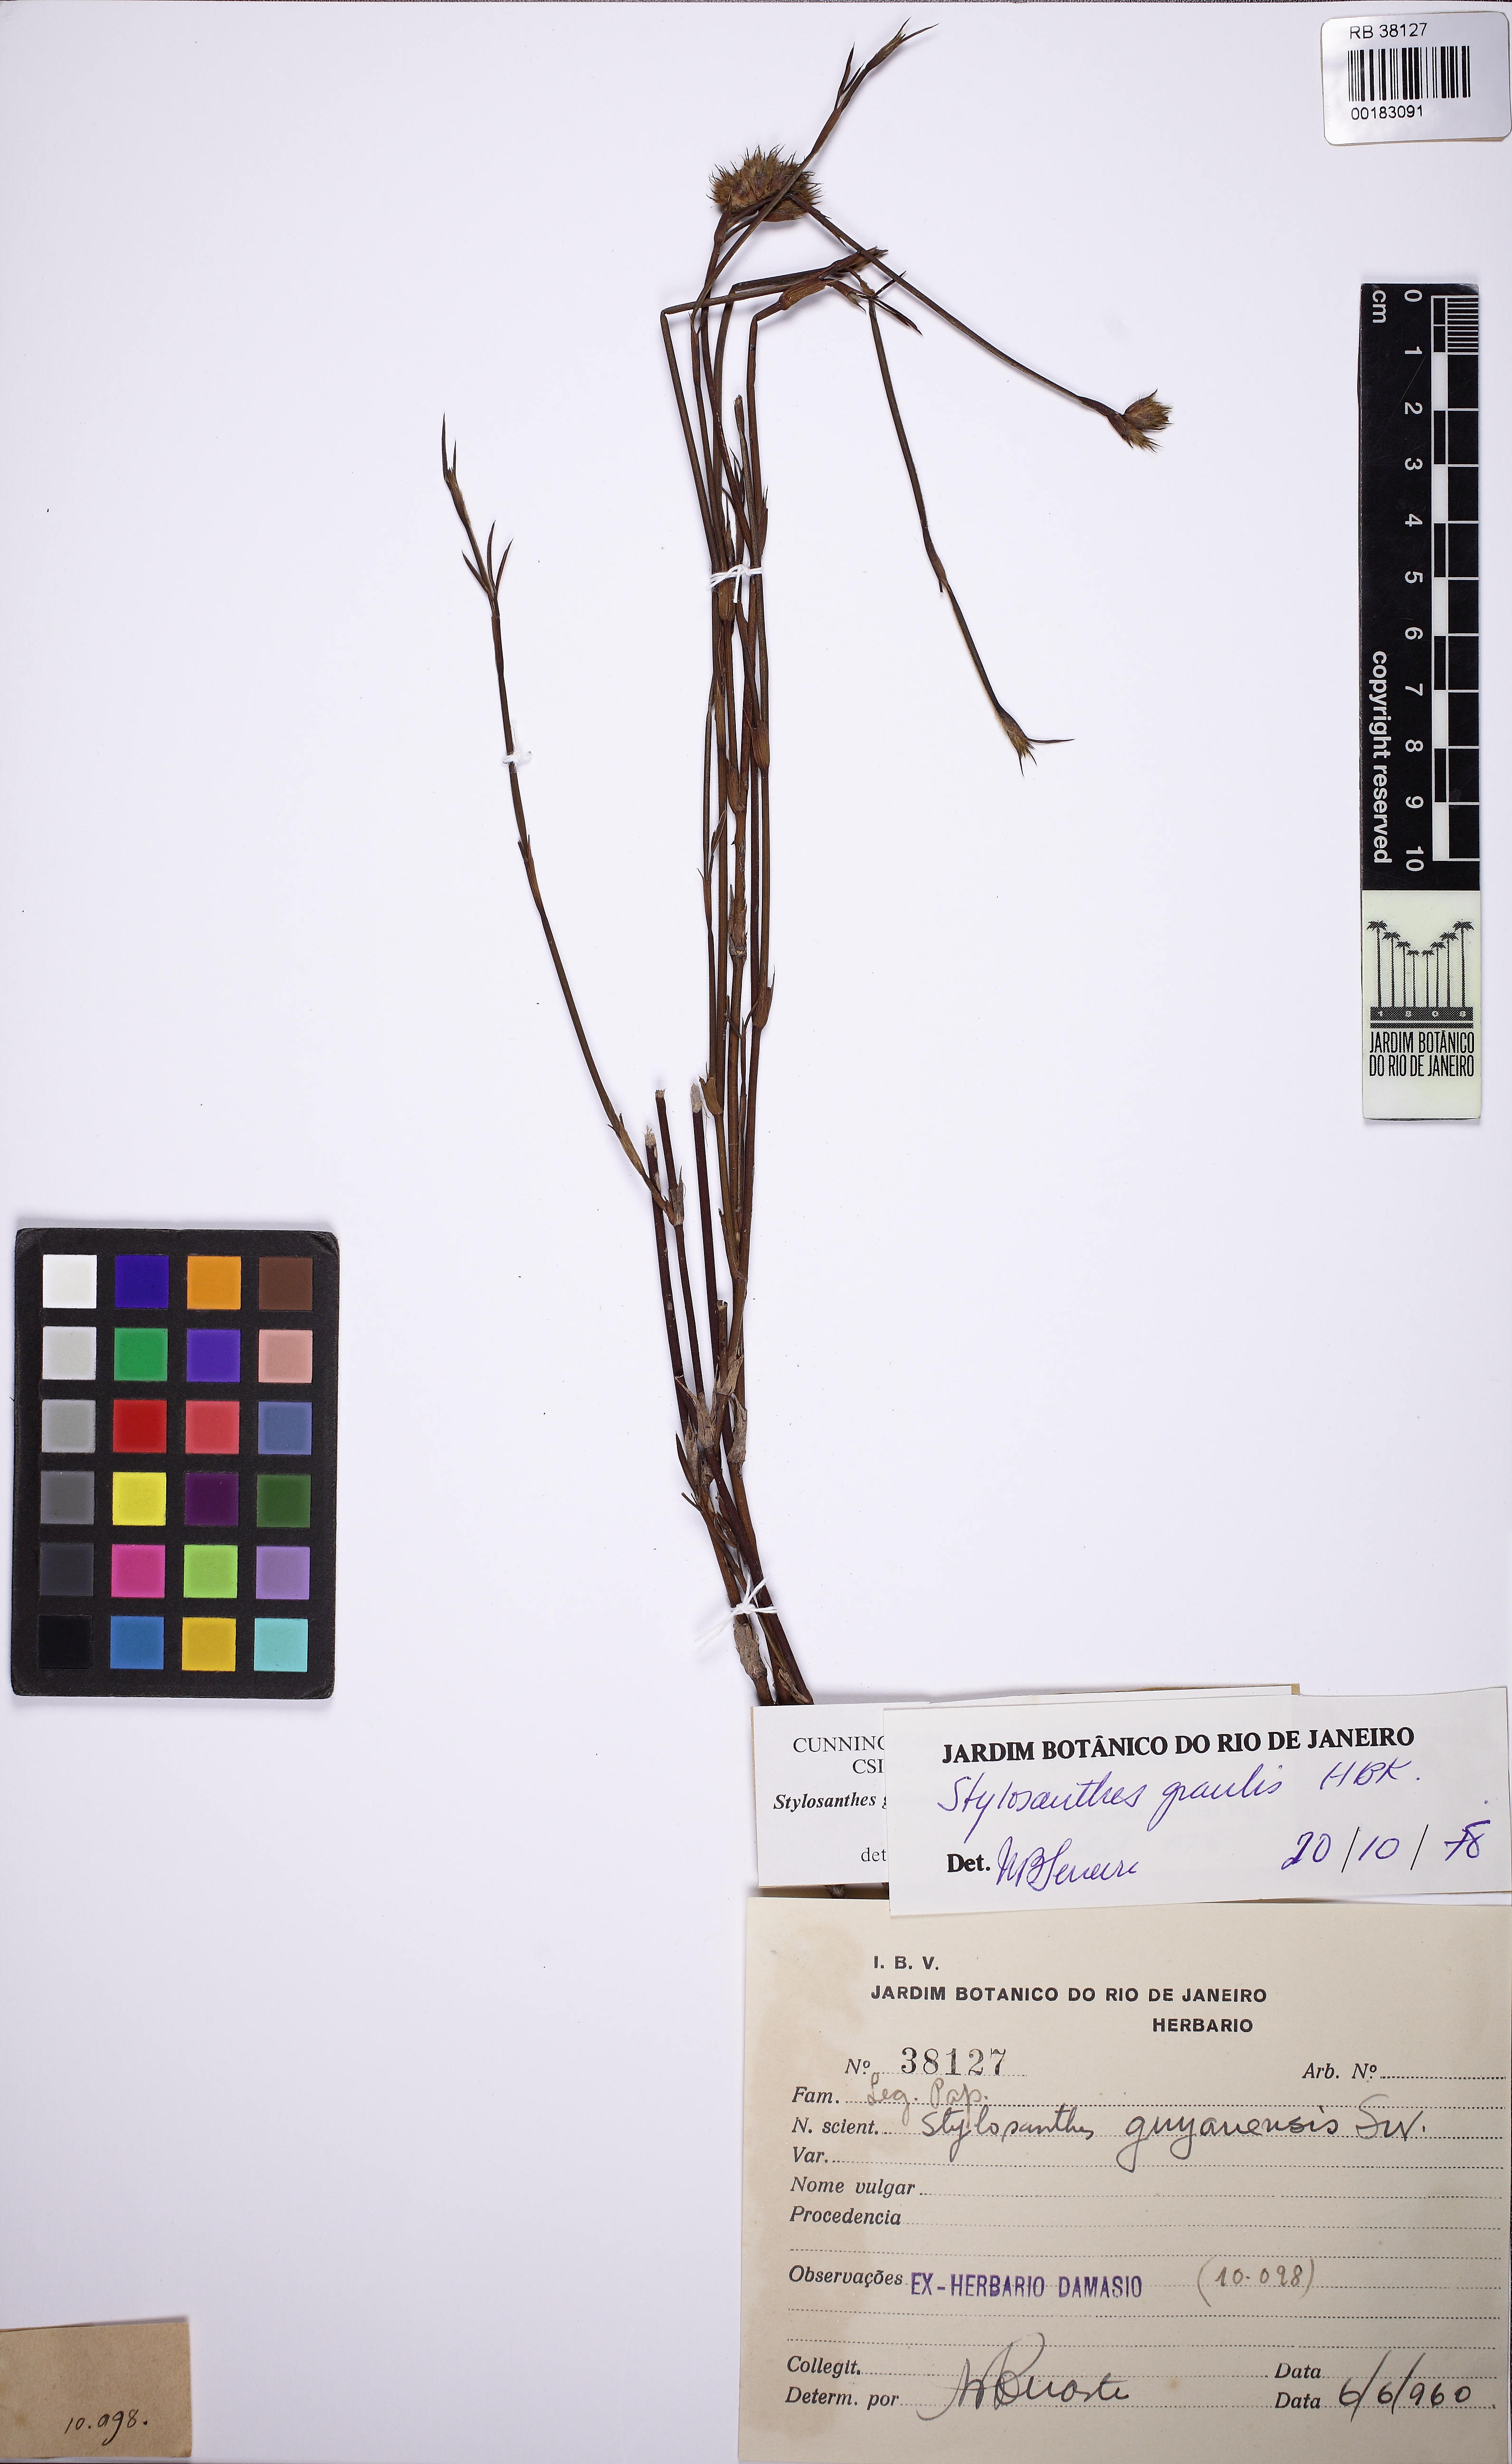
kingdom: Plantae
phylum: Tracheophyta
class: Magnoliopsida
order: Fabales
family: Fabaceae
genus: Stylosanthes
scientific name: Stylosanthes guianensis
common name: Pencil flower
